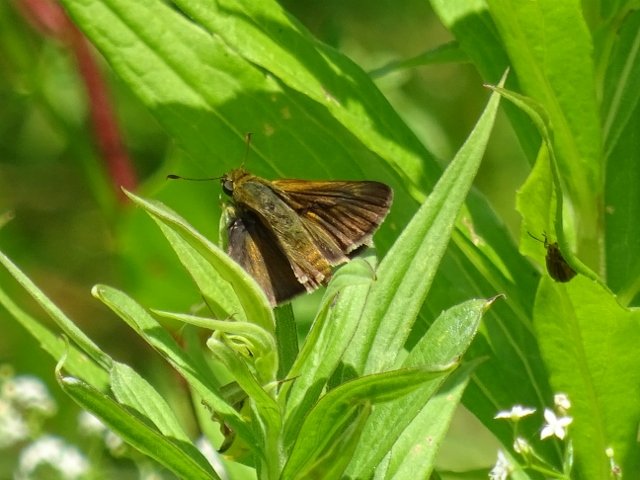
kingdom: Animalia
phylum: Arthropoda
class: Insecta
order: Lepidoptera
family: Hesperiidae
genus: Euphyes
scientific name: Euphyes vestris
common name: Dun Skipper
